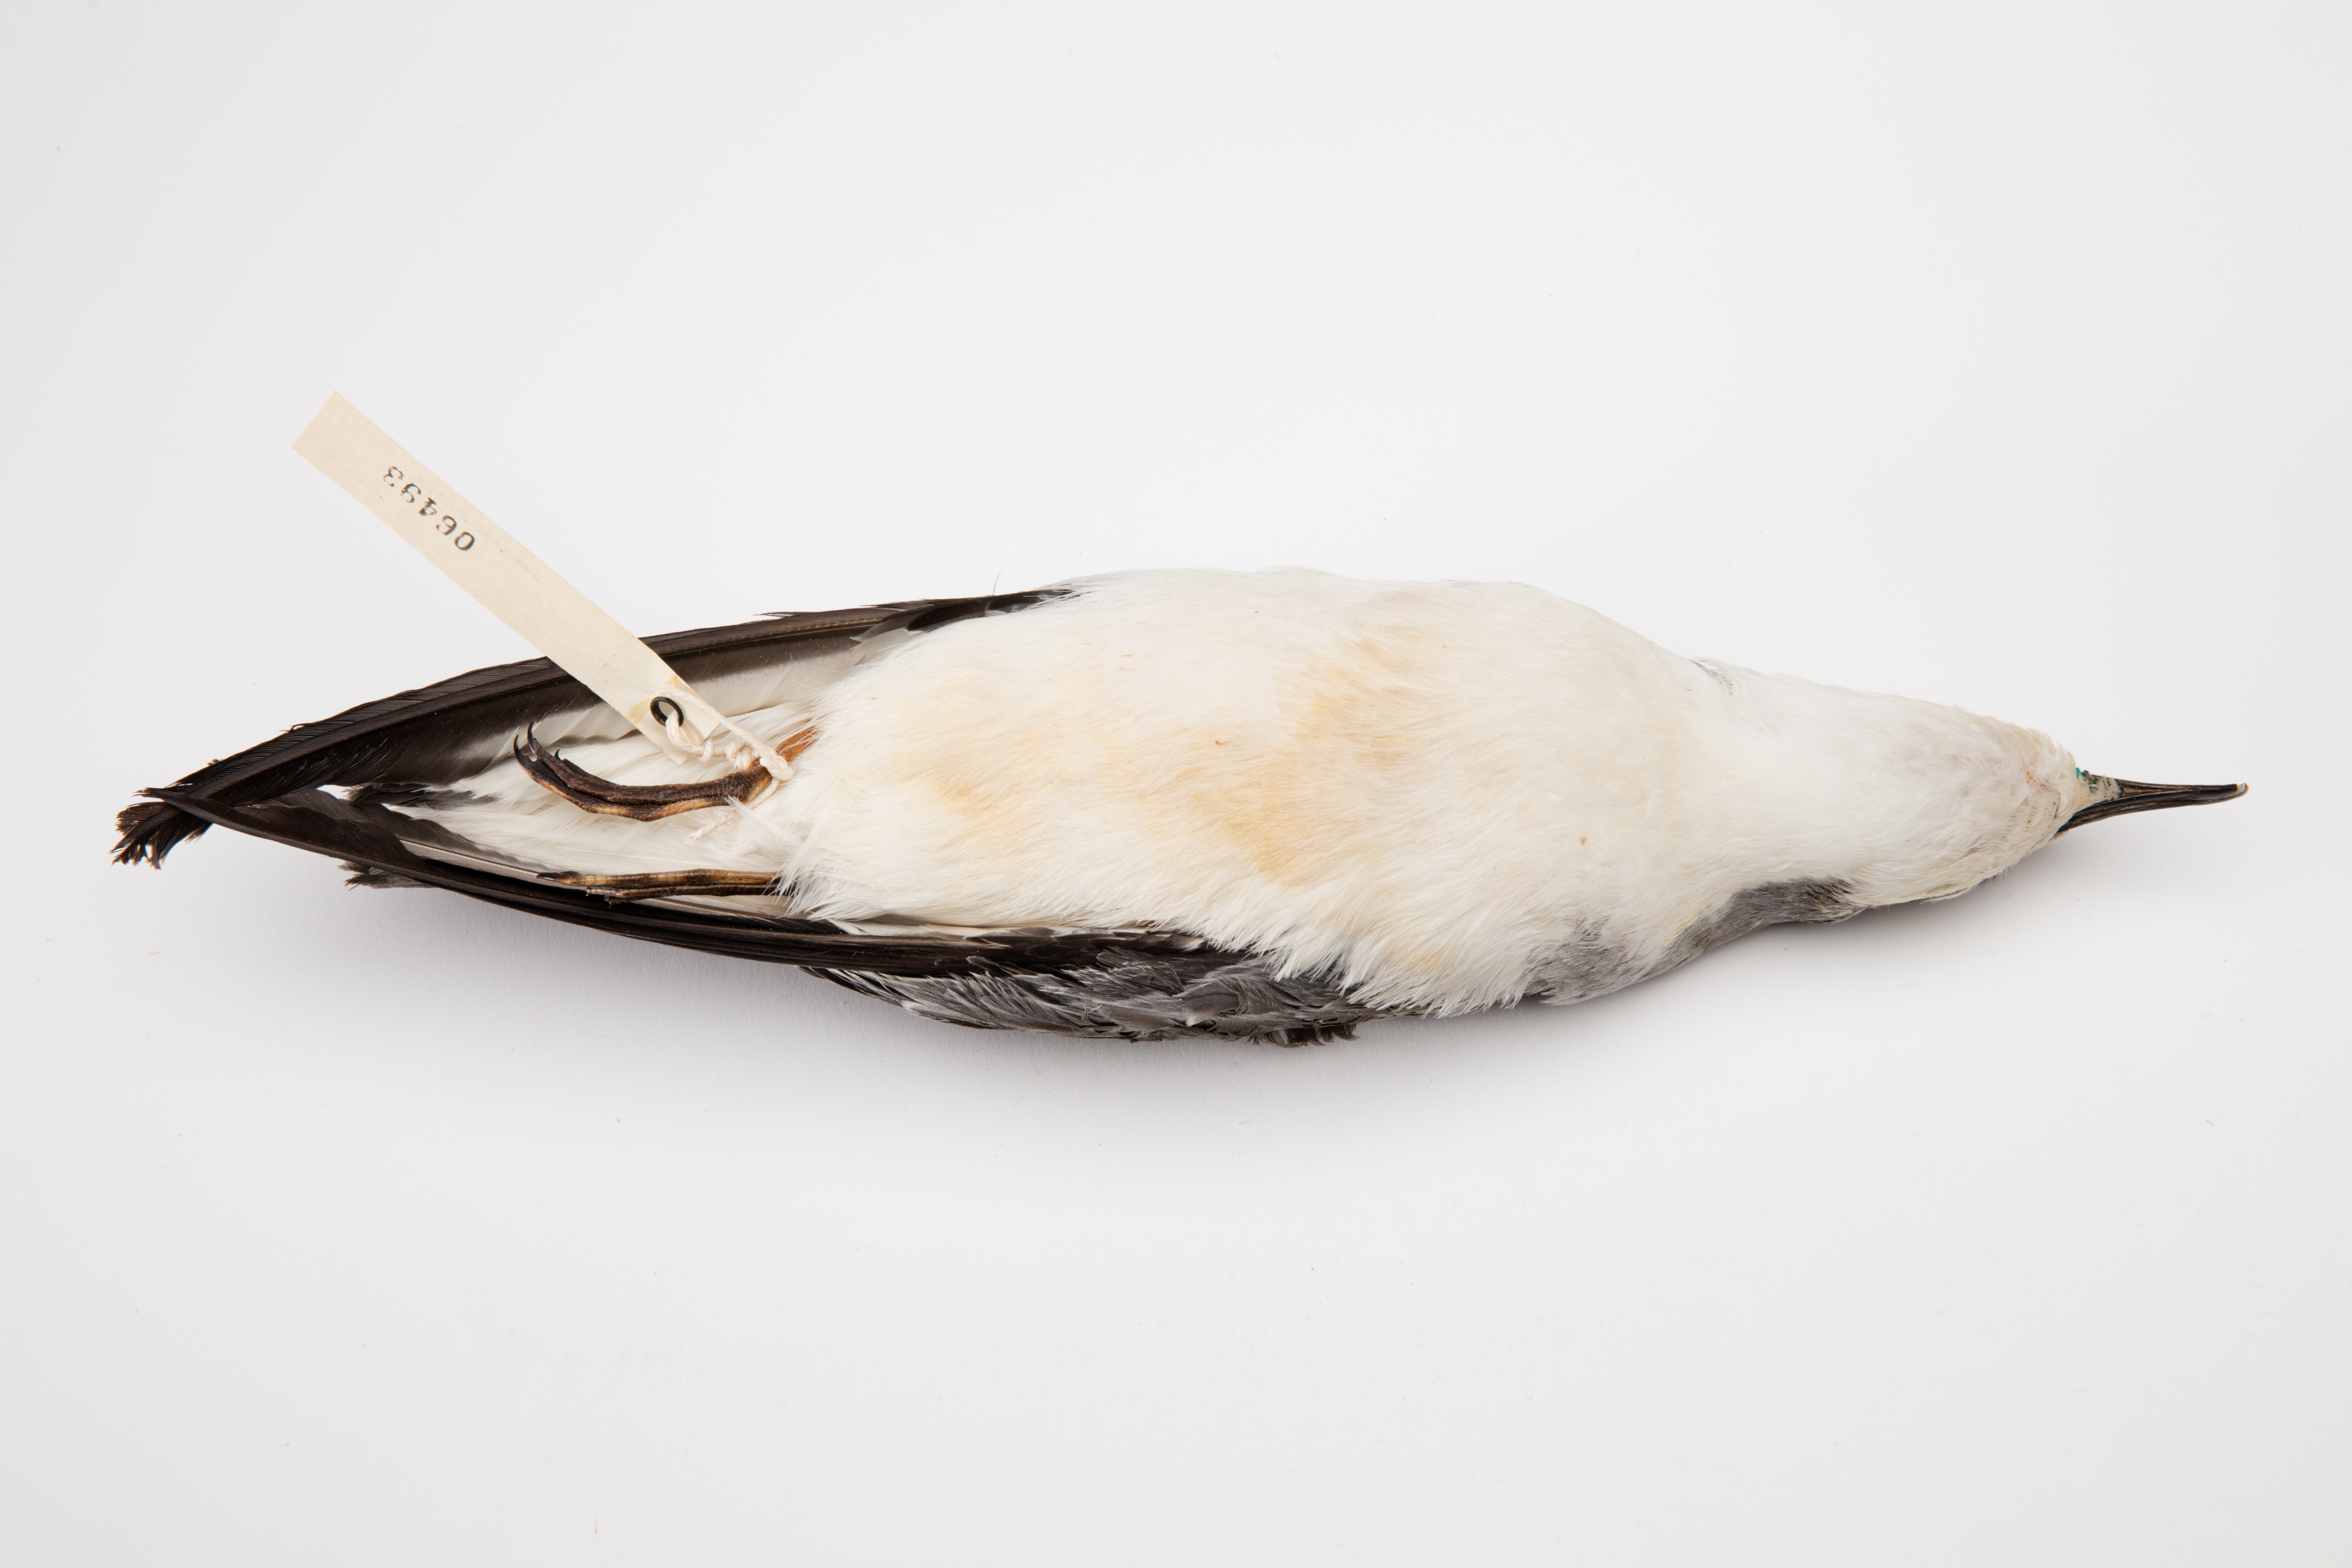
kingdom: Animalia
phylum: Chordata
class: Aves
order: Procellariiformes
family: Procellariidae
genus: Pterodroma
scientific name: Pterodroma cookii
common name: Cook's petrel
